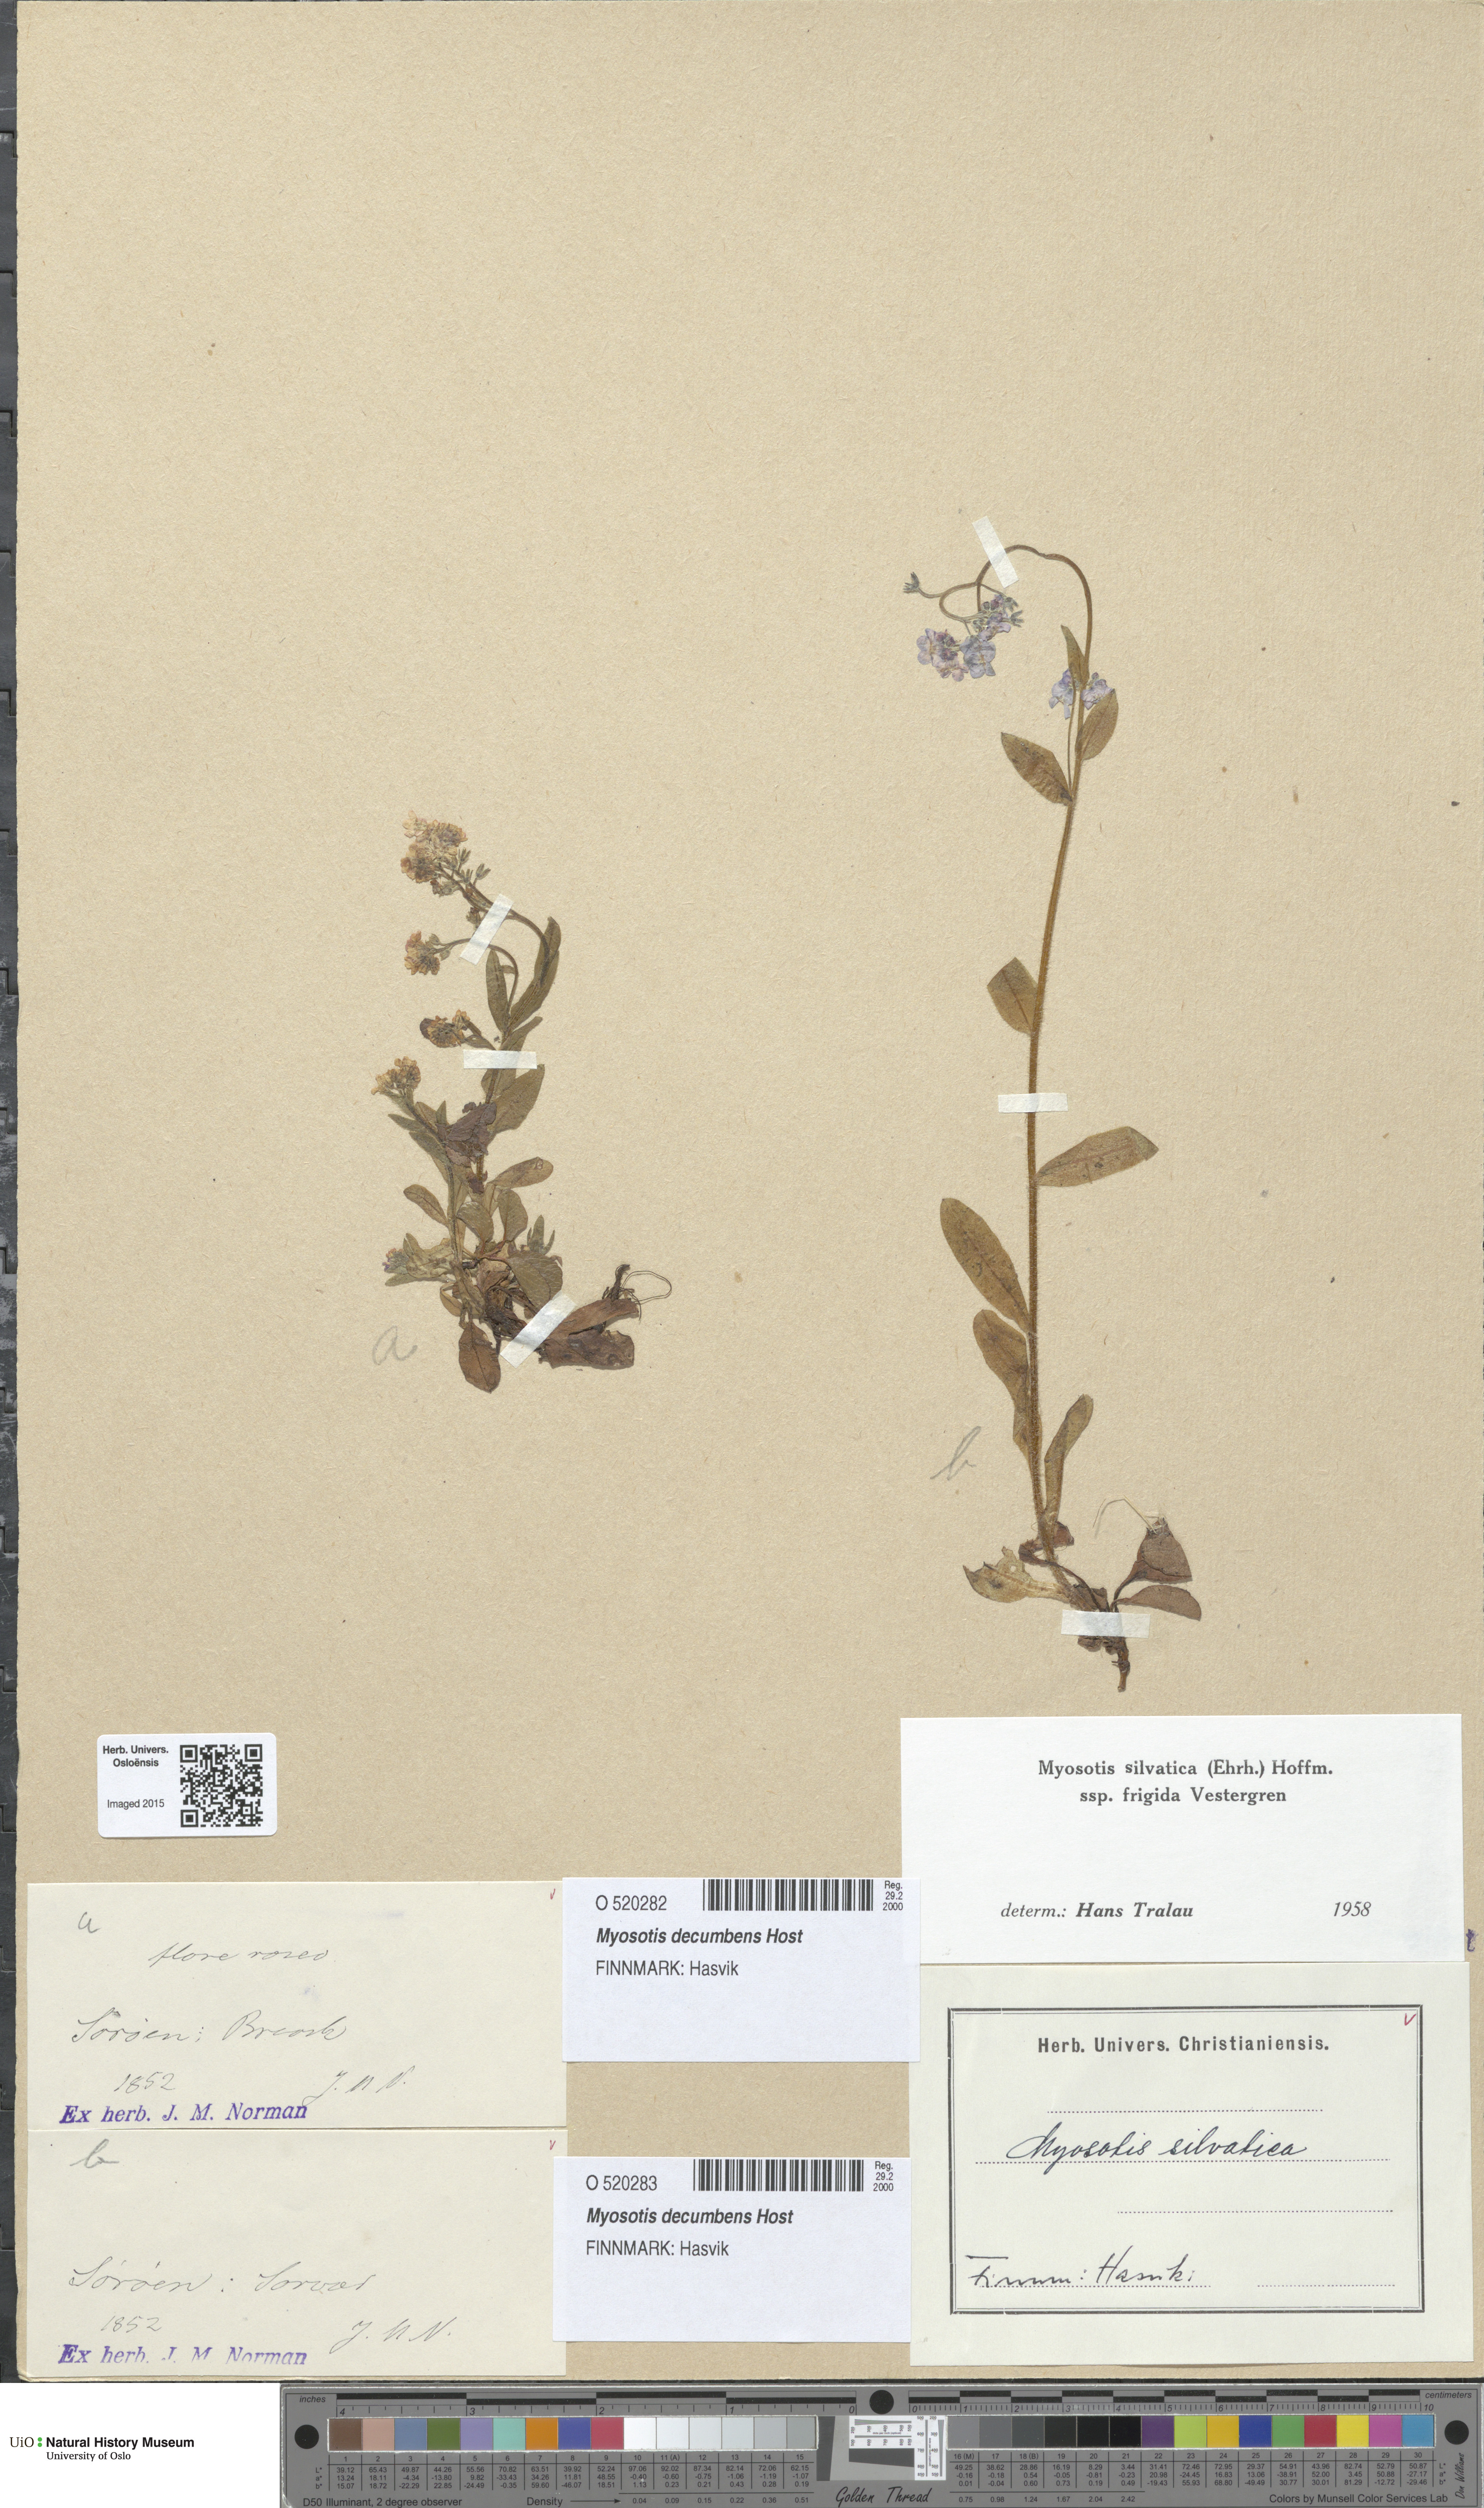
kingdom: Plantae
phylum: Tracheophyta
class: Magnoliopsida
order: Boraginales
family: Boraginaceae
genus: Myosotis
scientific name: Myosotis decumbens
